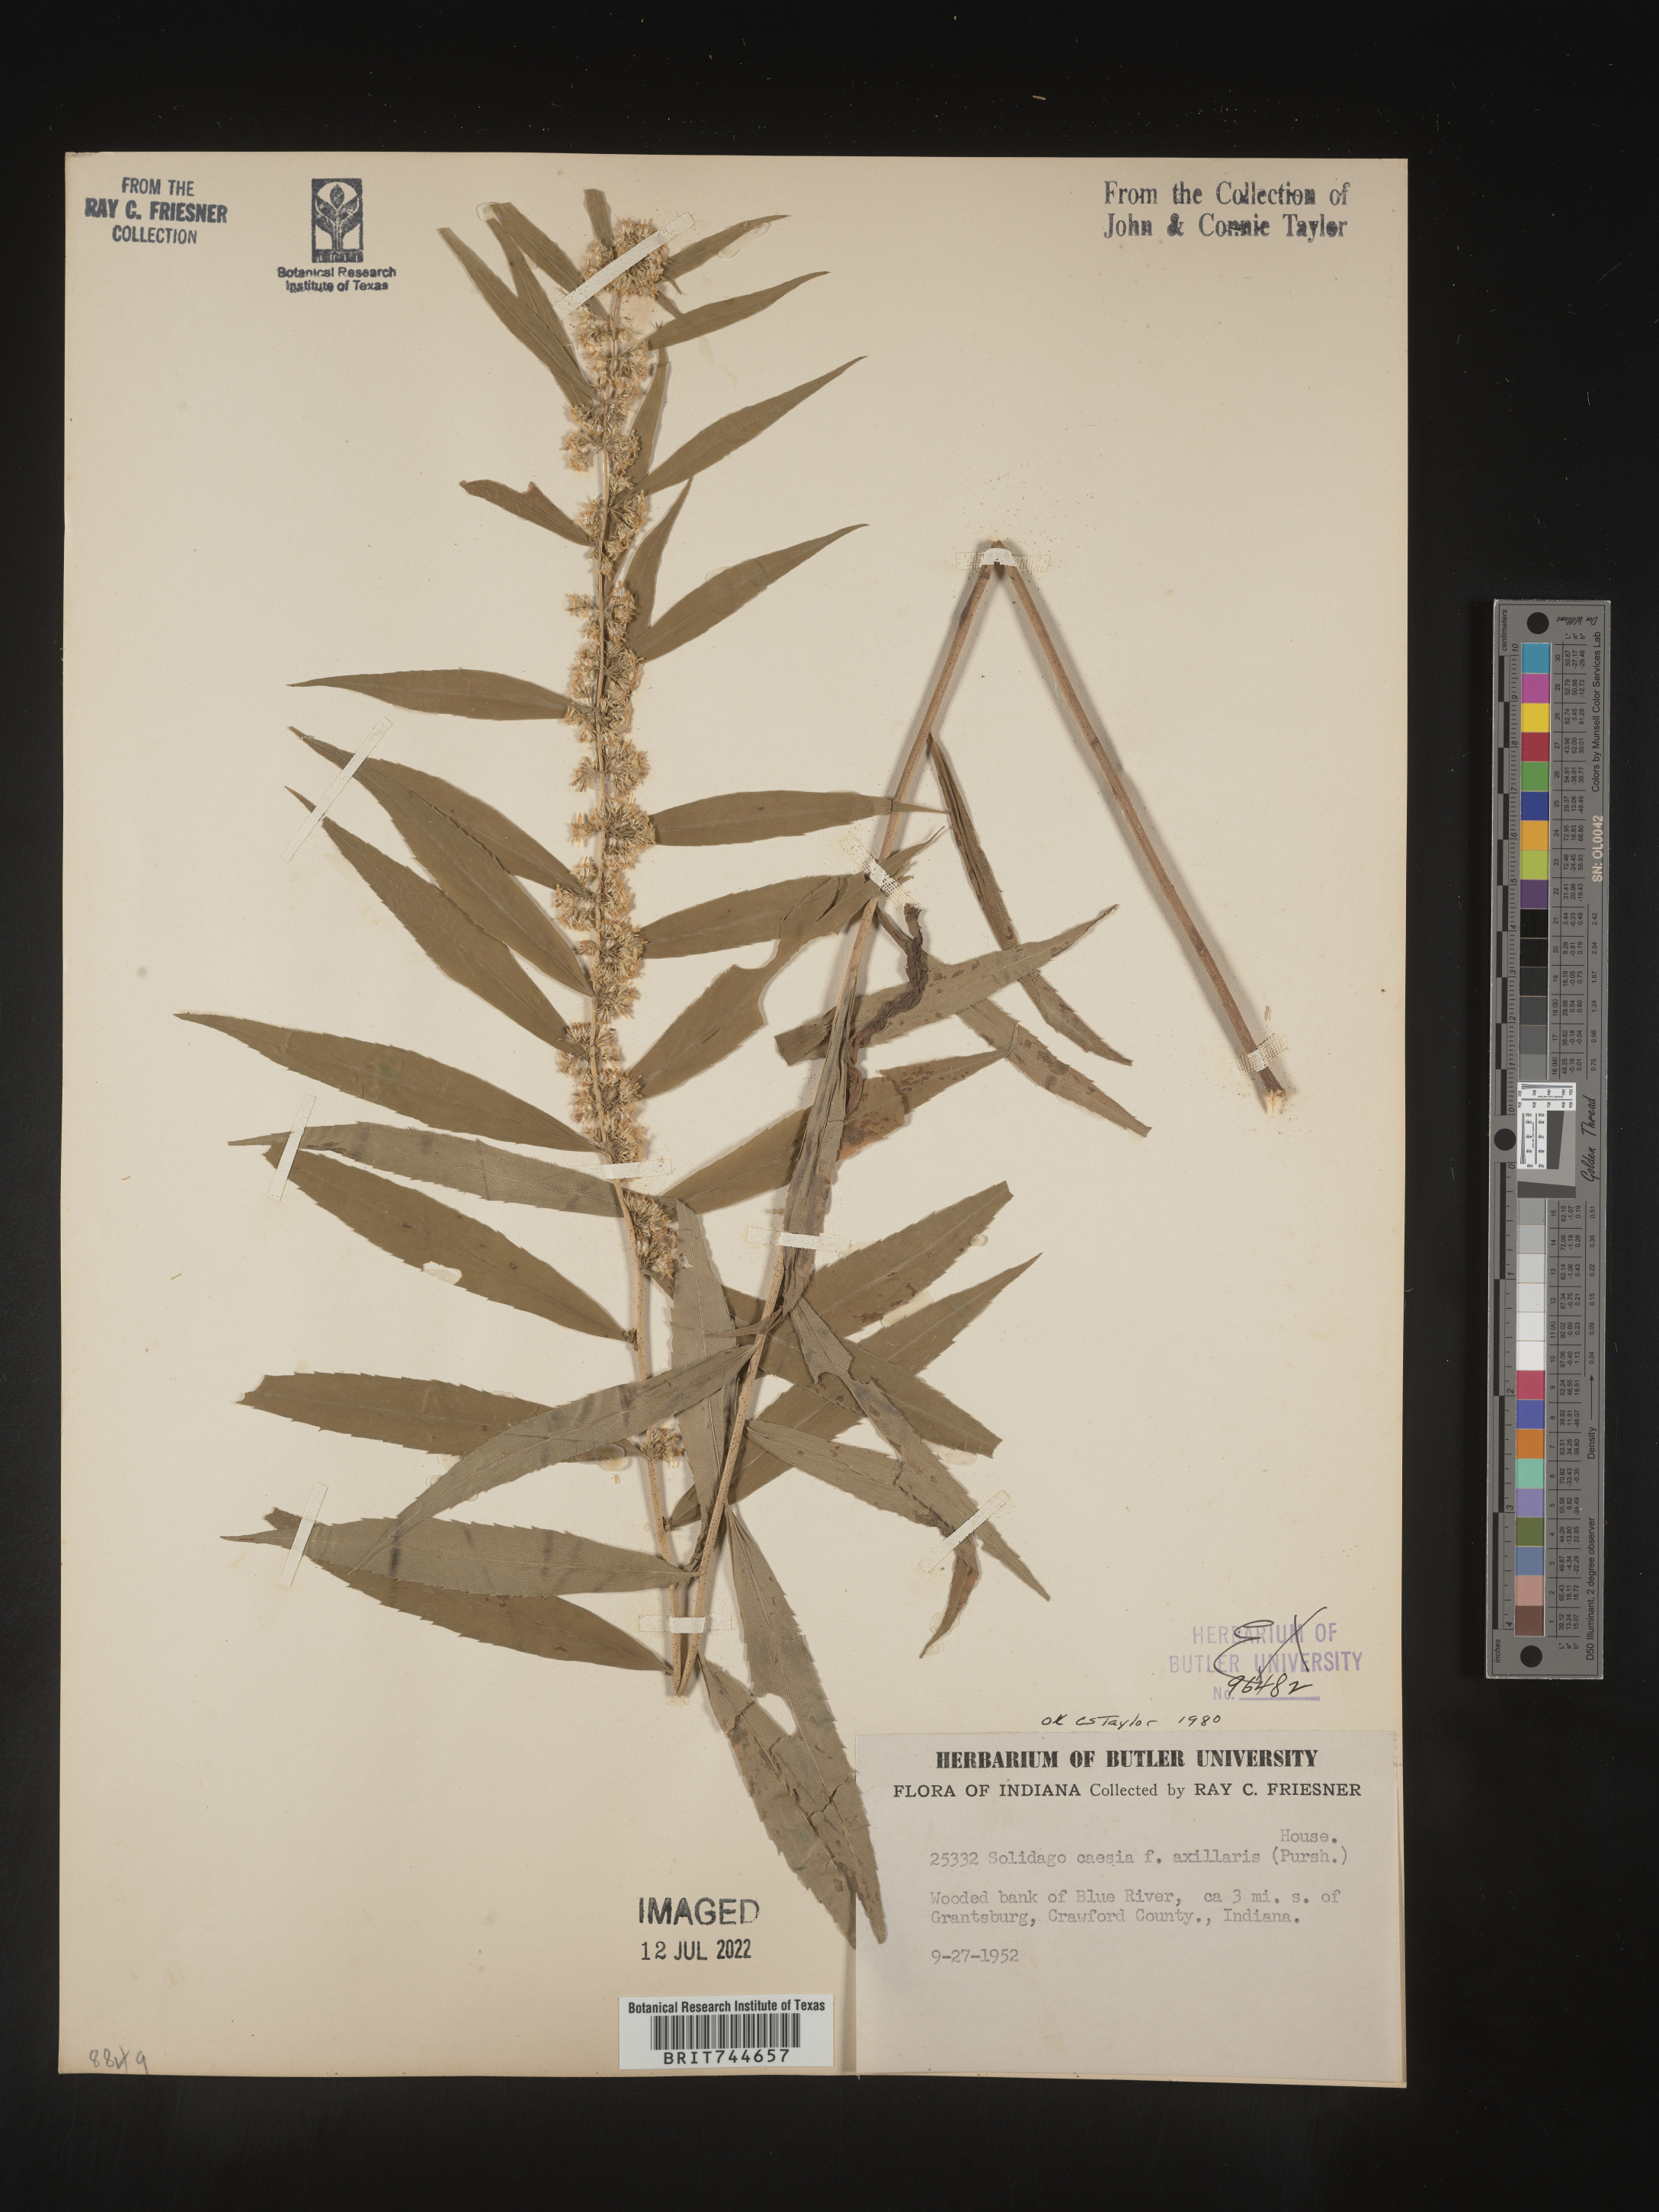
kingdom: Plantae
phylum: Tracheophyta
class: Magnoliopsida
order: Asterales
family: Asteraceae
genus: Solidago
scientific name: Solidago caesia
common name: Woodland goldenrod
